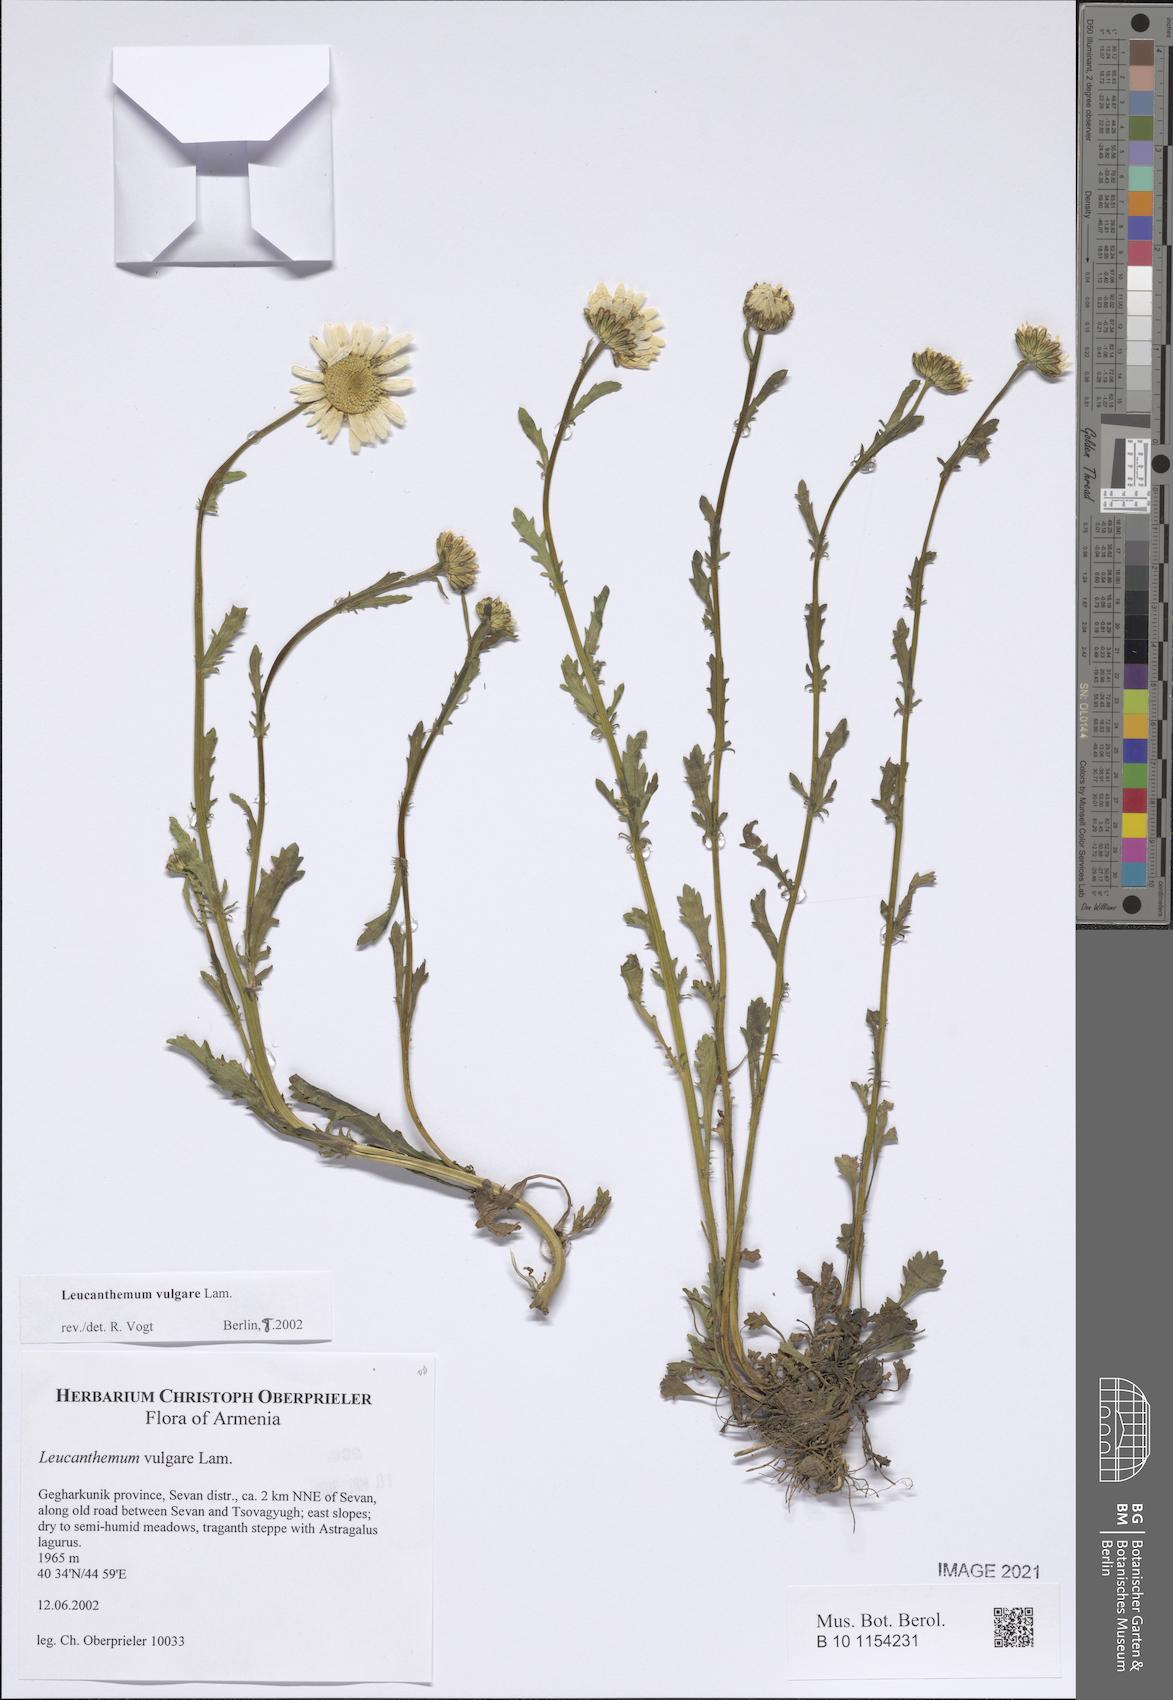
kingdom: Plantae
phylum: Tracheophyta
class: Magnoliopsida
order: Asterales
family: Asteraceae
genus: Leucanthemum
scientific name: Leucanthemum vulgare
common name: Oxeye daisy
